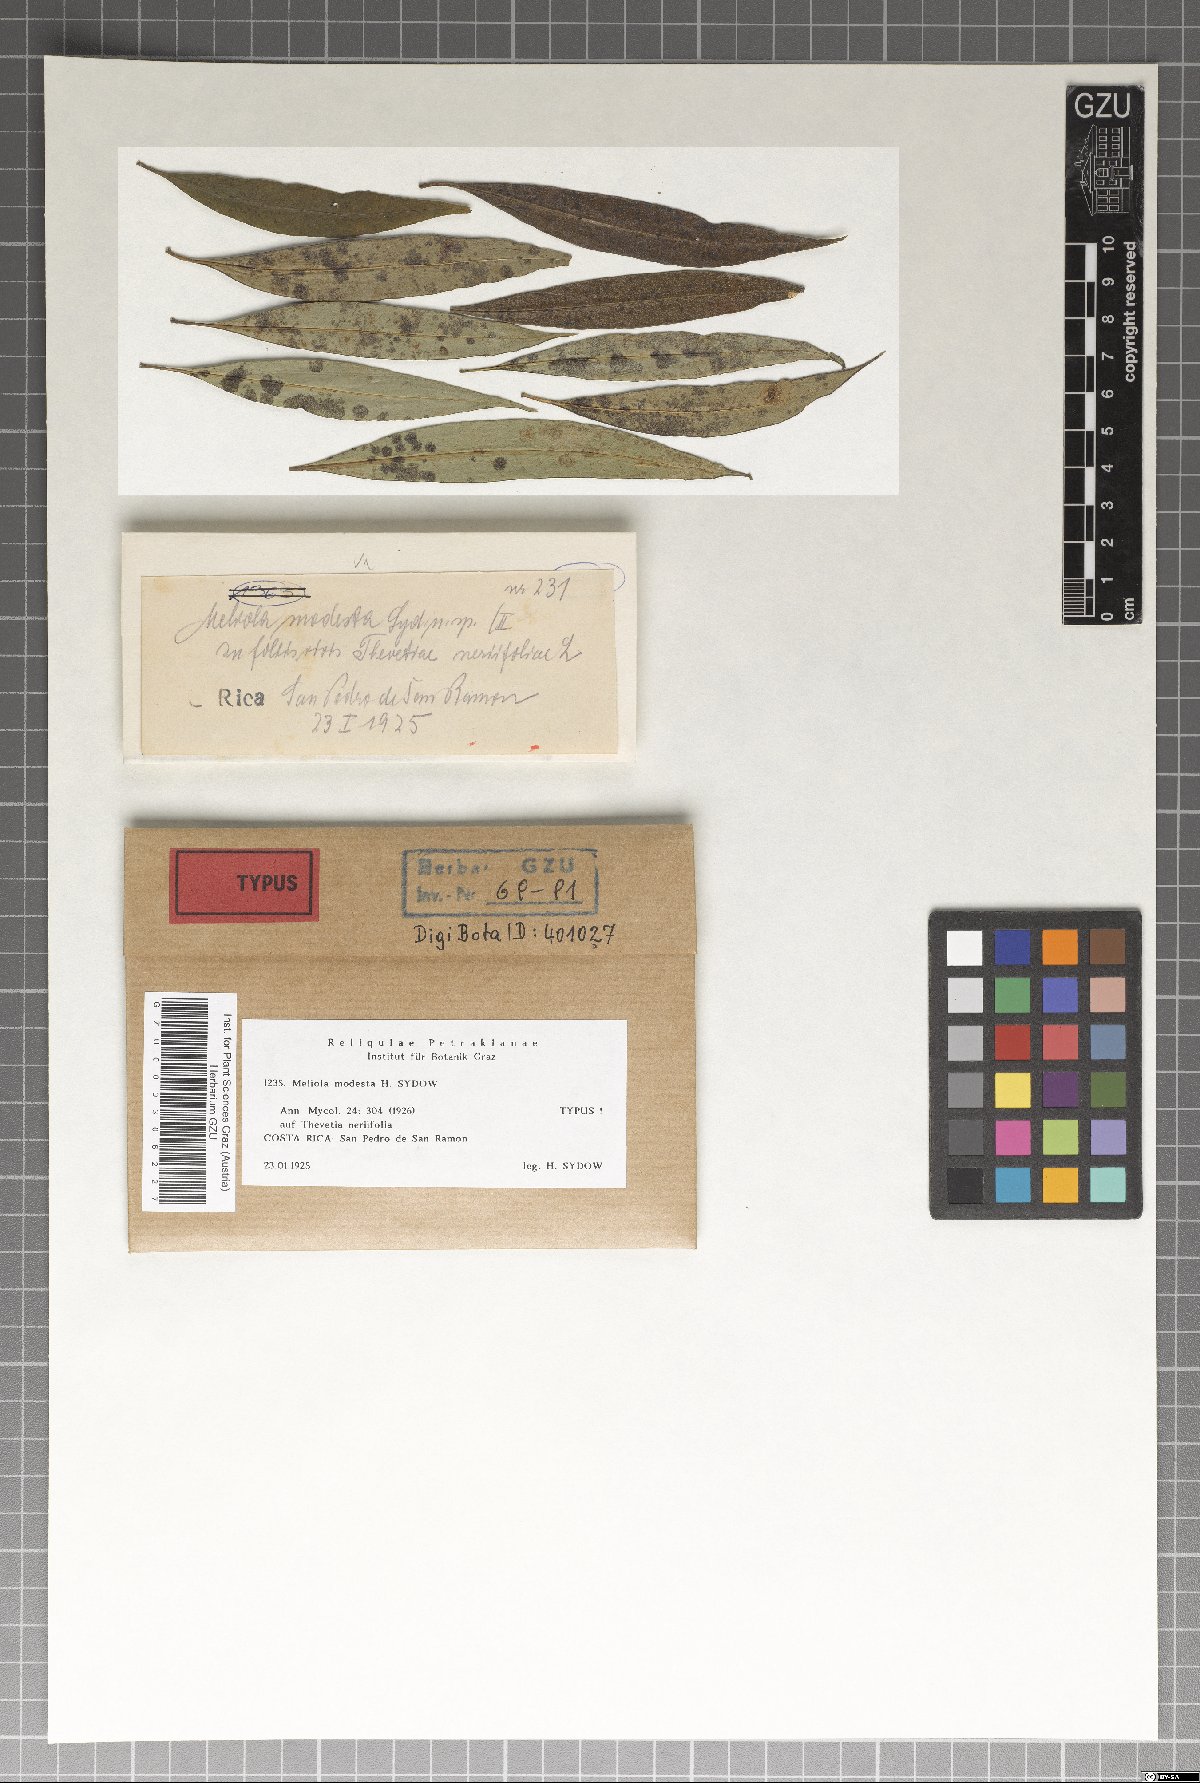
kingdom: Fungi
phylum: Ascomycota
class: Sordariomycetes
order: Meliolales
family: Meliolaceae
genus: Meliola
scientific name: Meliola modesta
